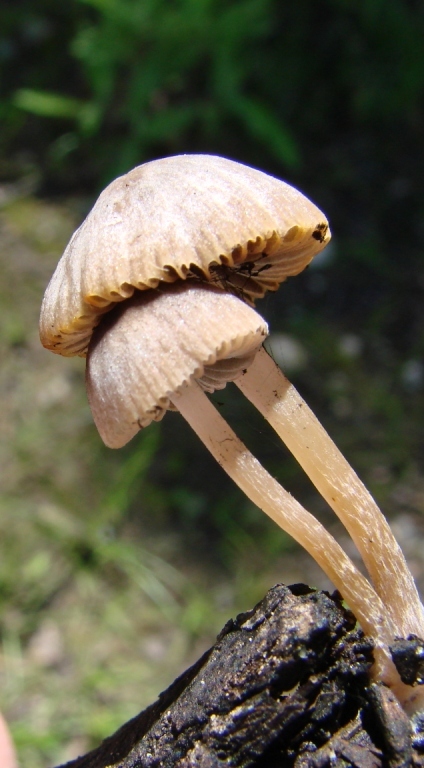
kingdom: Fungi
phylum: Basidiomycota
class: Agaricomycetes
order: Agaricales
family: Psathyrellaceae
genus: Psathyrella
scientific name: Psathyrella prona
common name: vej-mørkhat
